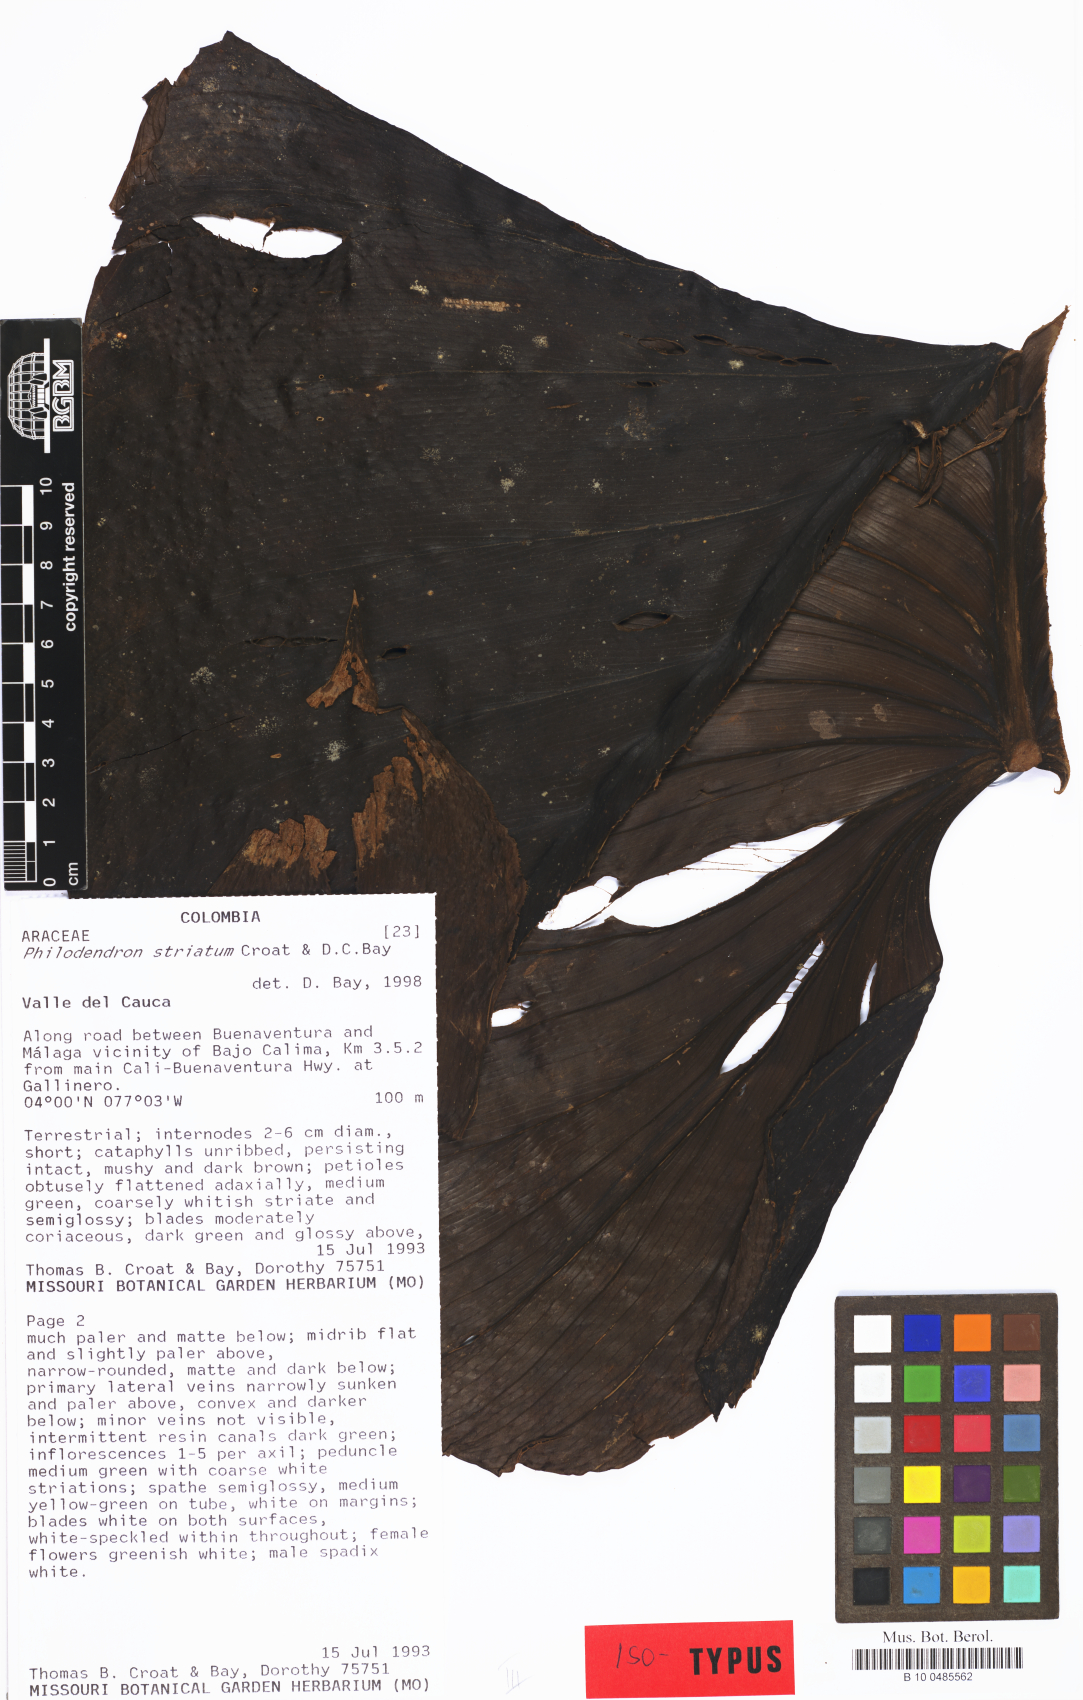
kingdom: Plantae
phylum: Tracheophyta
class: Liliopsida
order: Alismatales
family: Araceae
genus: Philodendron
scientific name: Philodendron striatum
